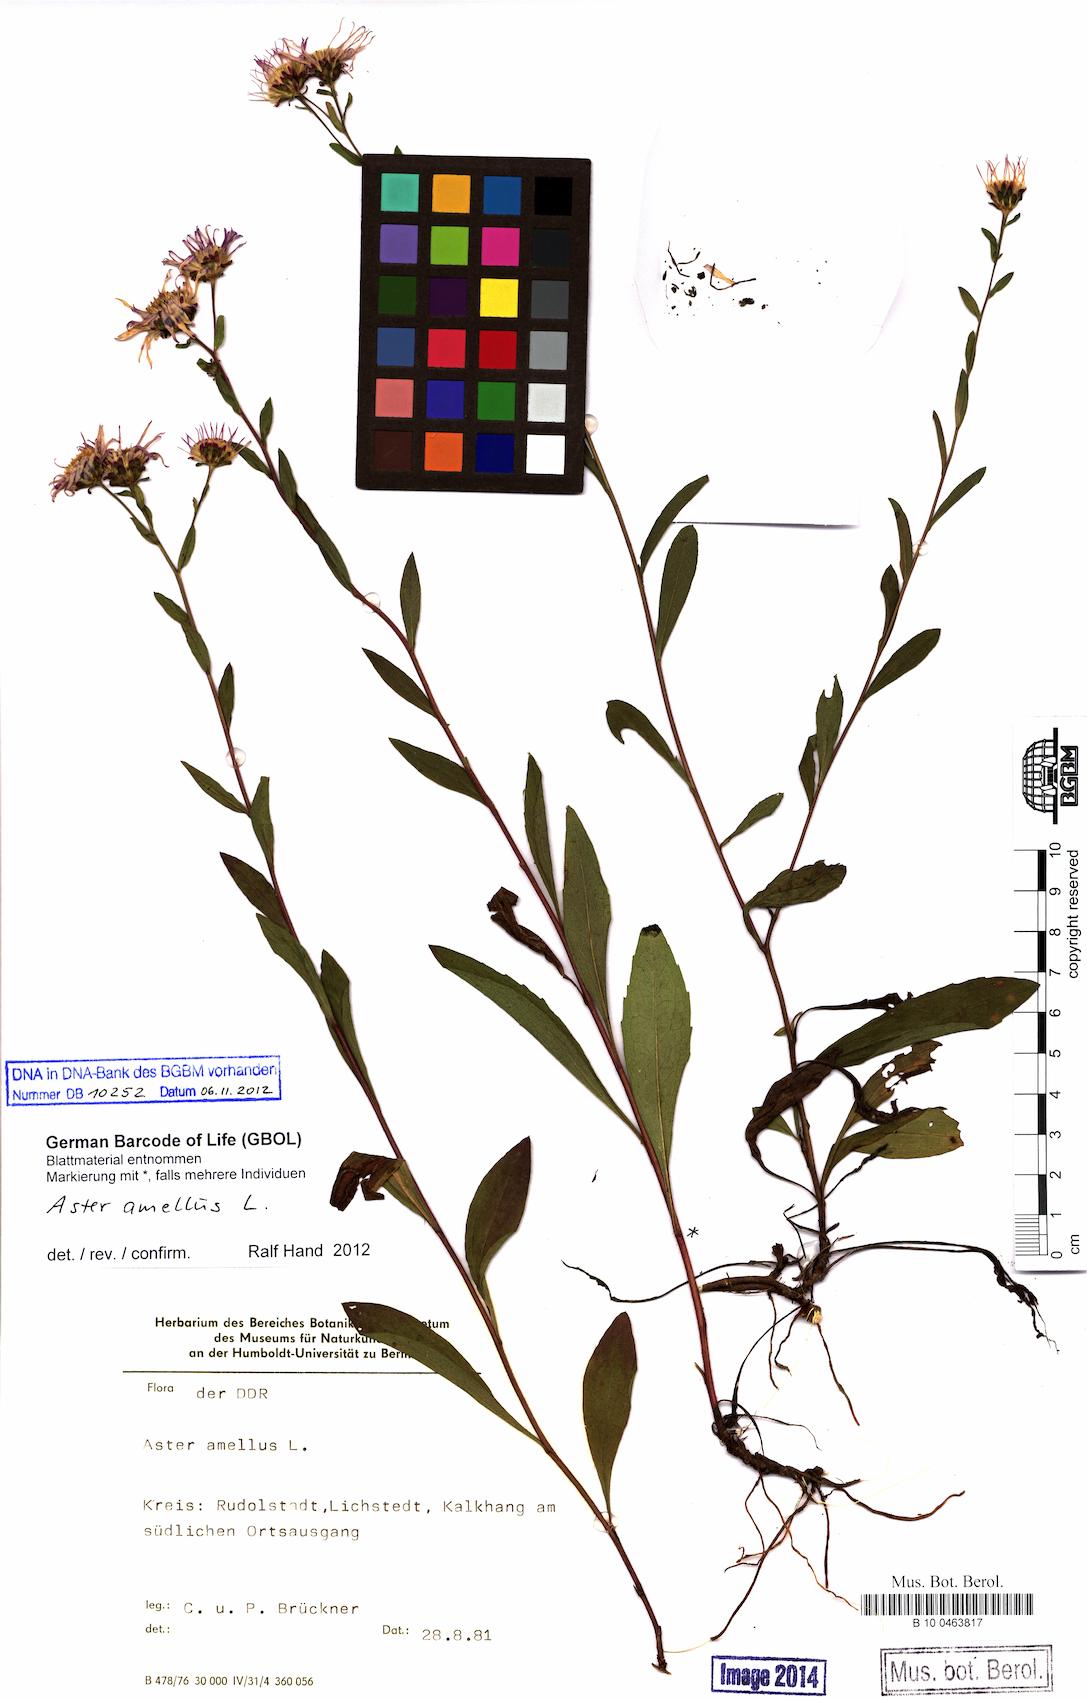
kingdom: Plantae
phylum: Tracheophyta
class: Magnoliopsida
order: Asterales
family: Asteraceae
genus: Aster
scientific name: Aster amellus
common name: European michaelmas daisy
